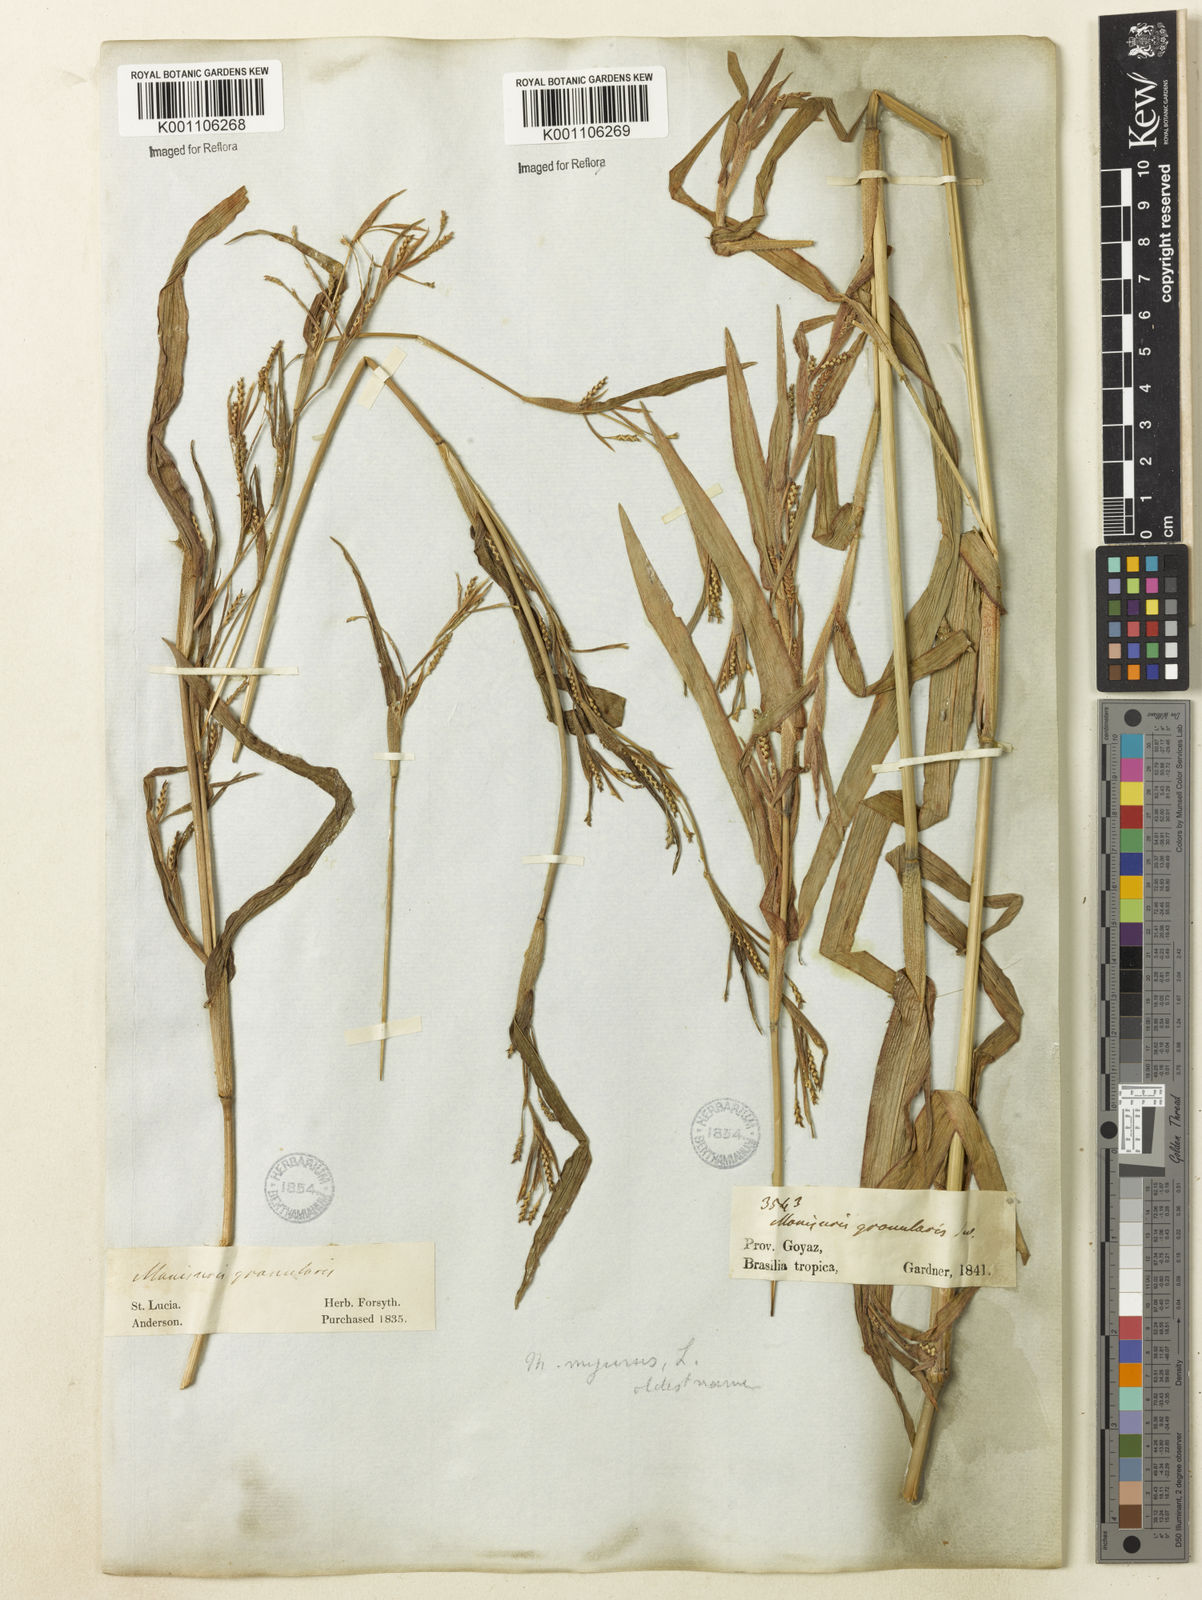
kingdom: Plantae
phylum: Tracheophyta
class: Liliopsida
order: Poales
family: Poaceae
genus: Hackelochloa
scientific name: Hackelochloa granularis
